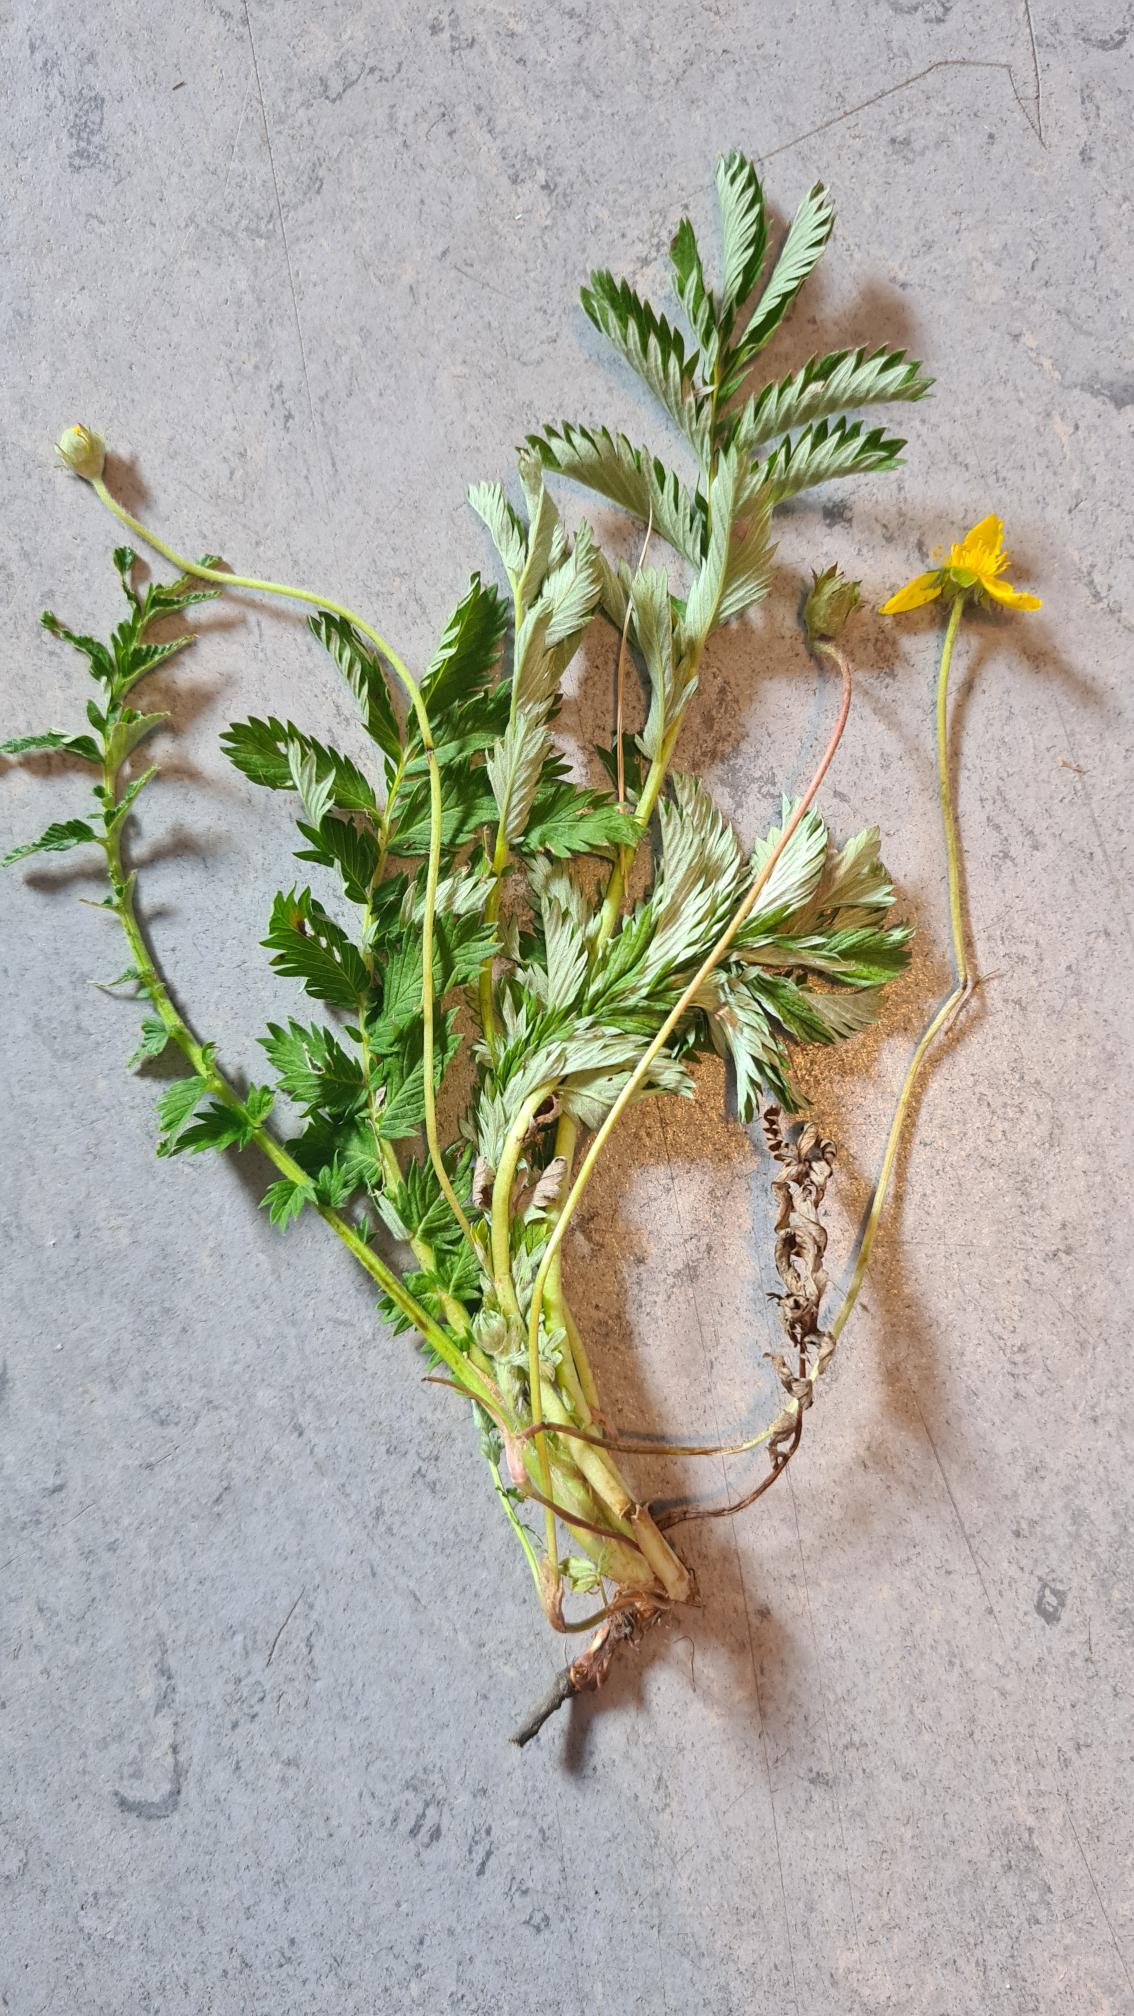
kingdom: Plantae
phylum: Tracheophyta
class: Magnoliopsida
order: Rosales
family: Rosaceae
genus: Argentina
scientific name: Argentina anserina
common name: Gåsepotentil
